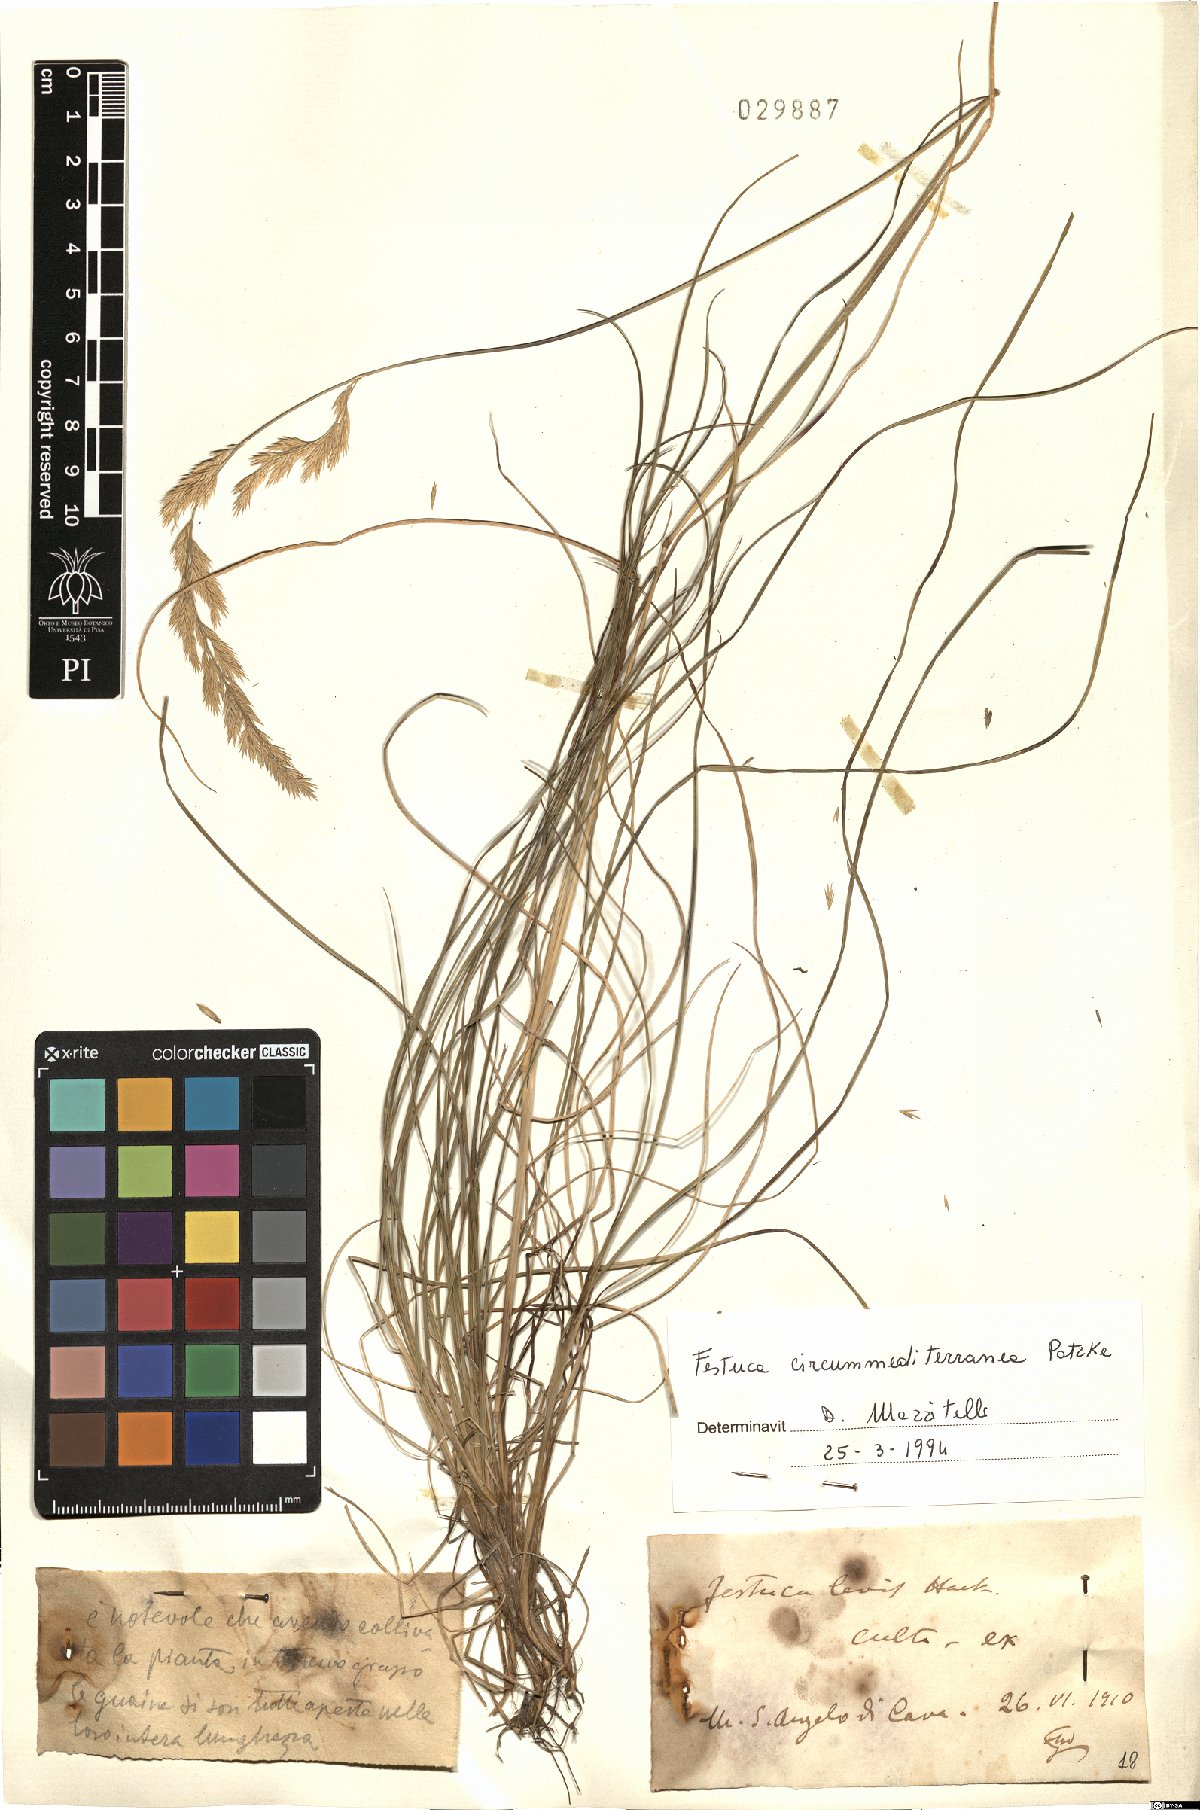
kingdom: Plantae
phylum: Tracheophyta
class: Liliopsida
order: Poales
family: Poaceae
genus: Festuca
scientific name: Festuca circummediterranea
